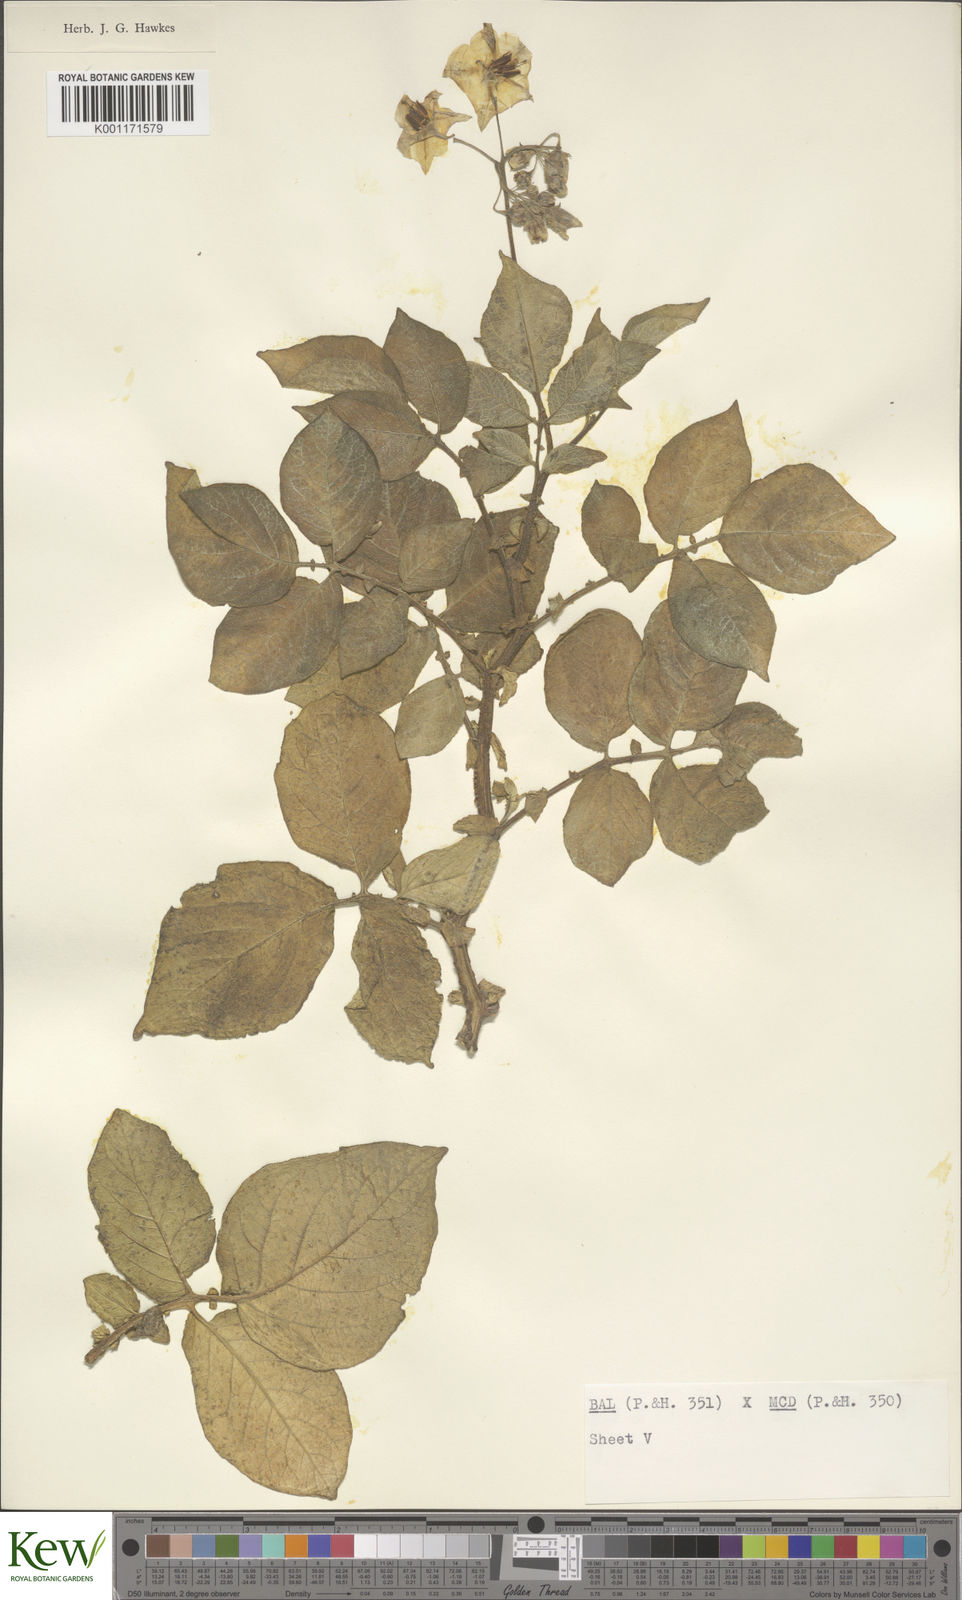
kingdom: Plantae
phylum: Tracheophyta
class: Magnoliopsida
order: Solanales
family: Solanaceae
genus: Solanum
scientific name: Solanum vernei
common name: Purple potato
